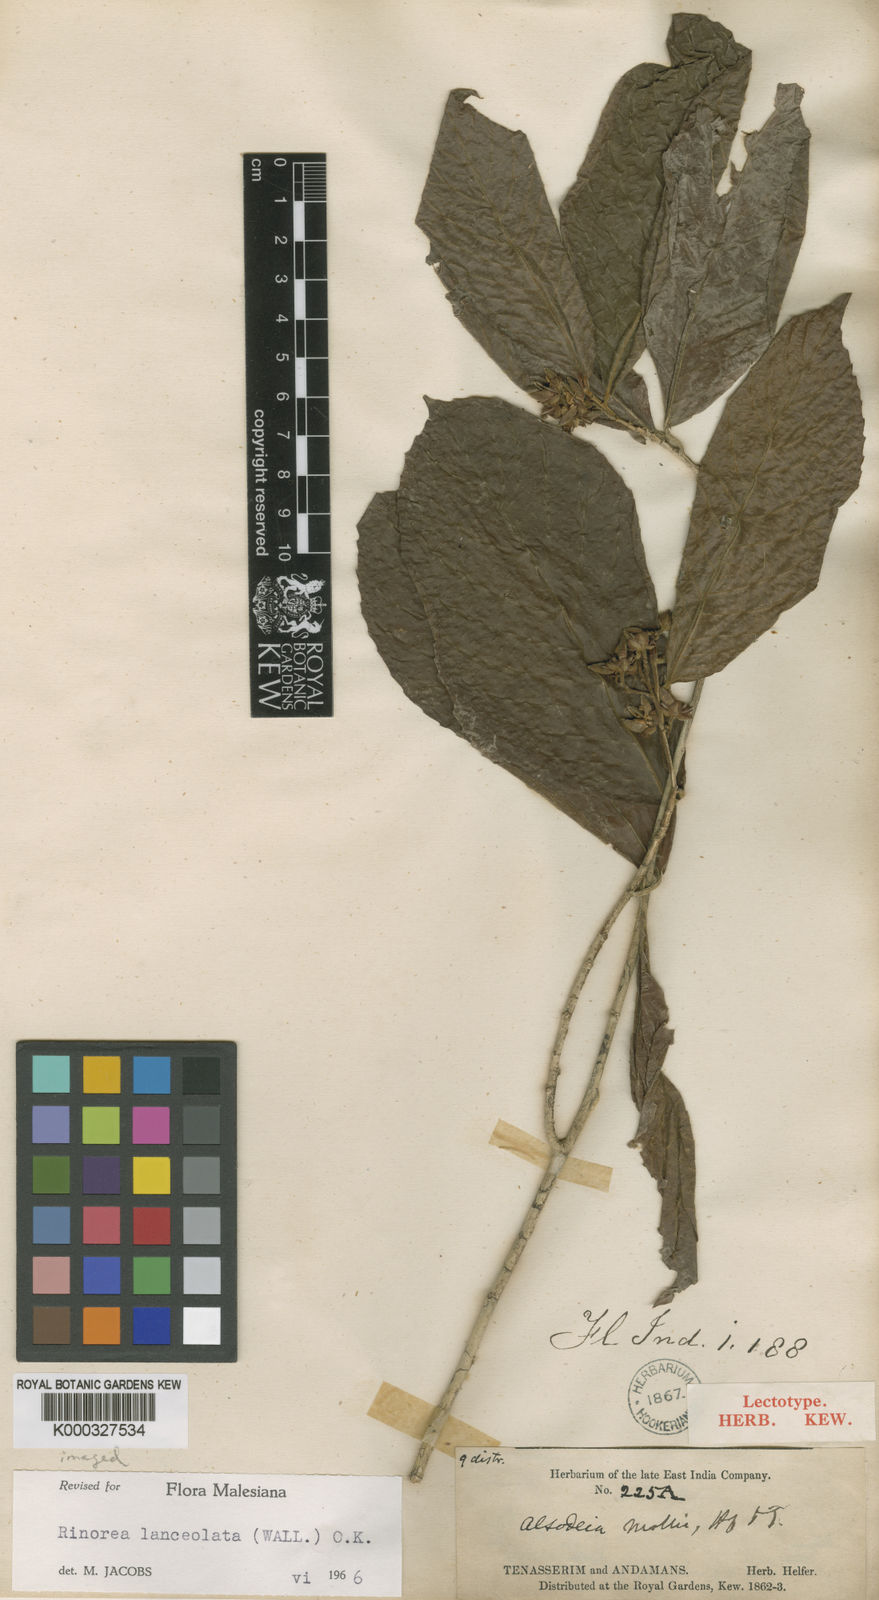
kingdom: Plantae
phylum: Tracheophyta
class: Magnoliopsida
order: Malpighiales
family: Violaceae
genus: Rinorea
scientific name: Rinorea lanceolata
